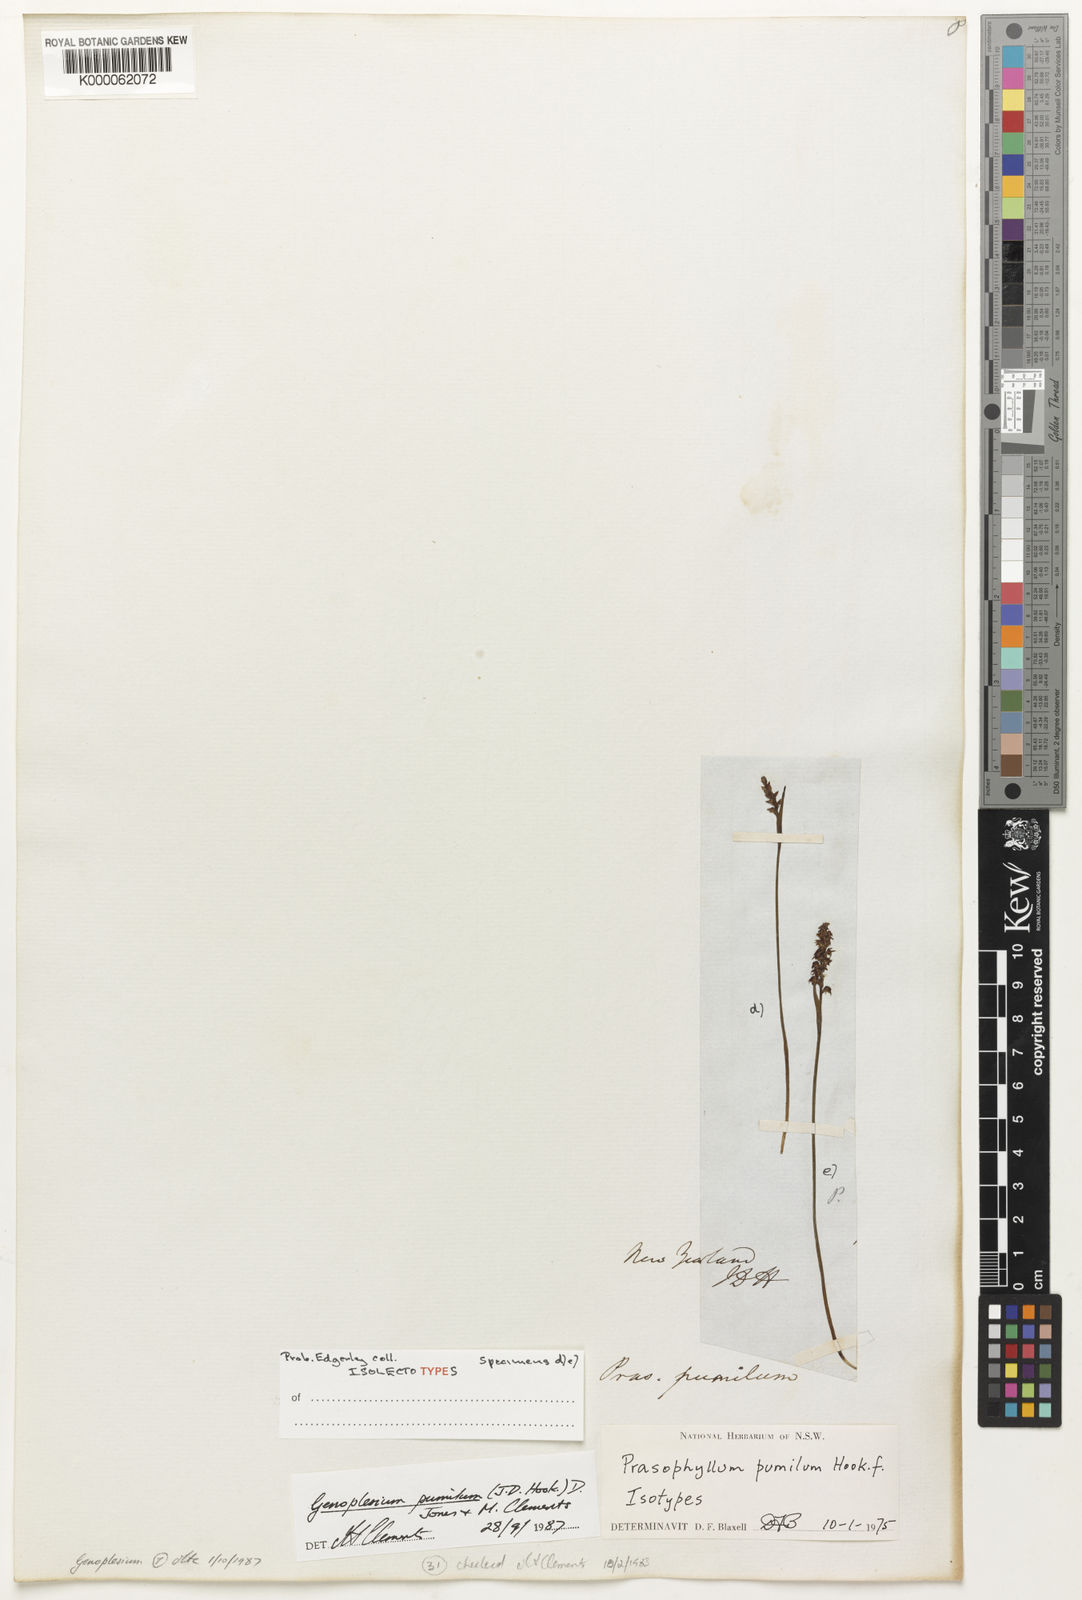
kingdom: Plantae
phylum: Tracheophyta
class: Liliopsida
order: Asparagales
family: Orchidaceae
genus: Genoplesium
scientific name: Genoplesium pumilum
